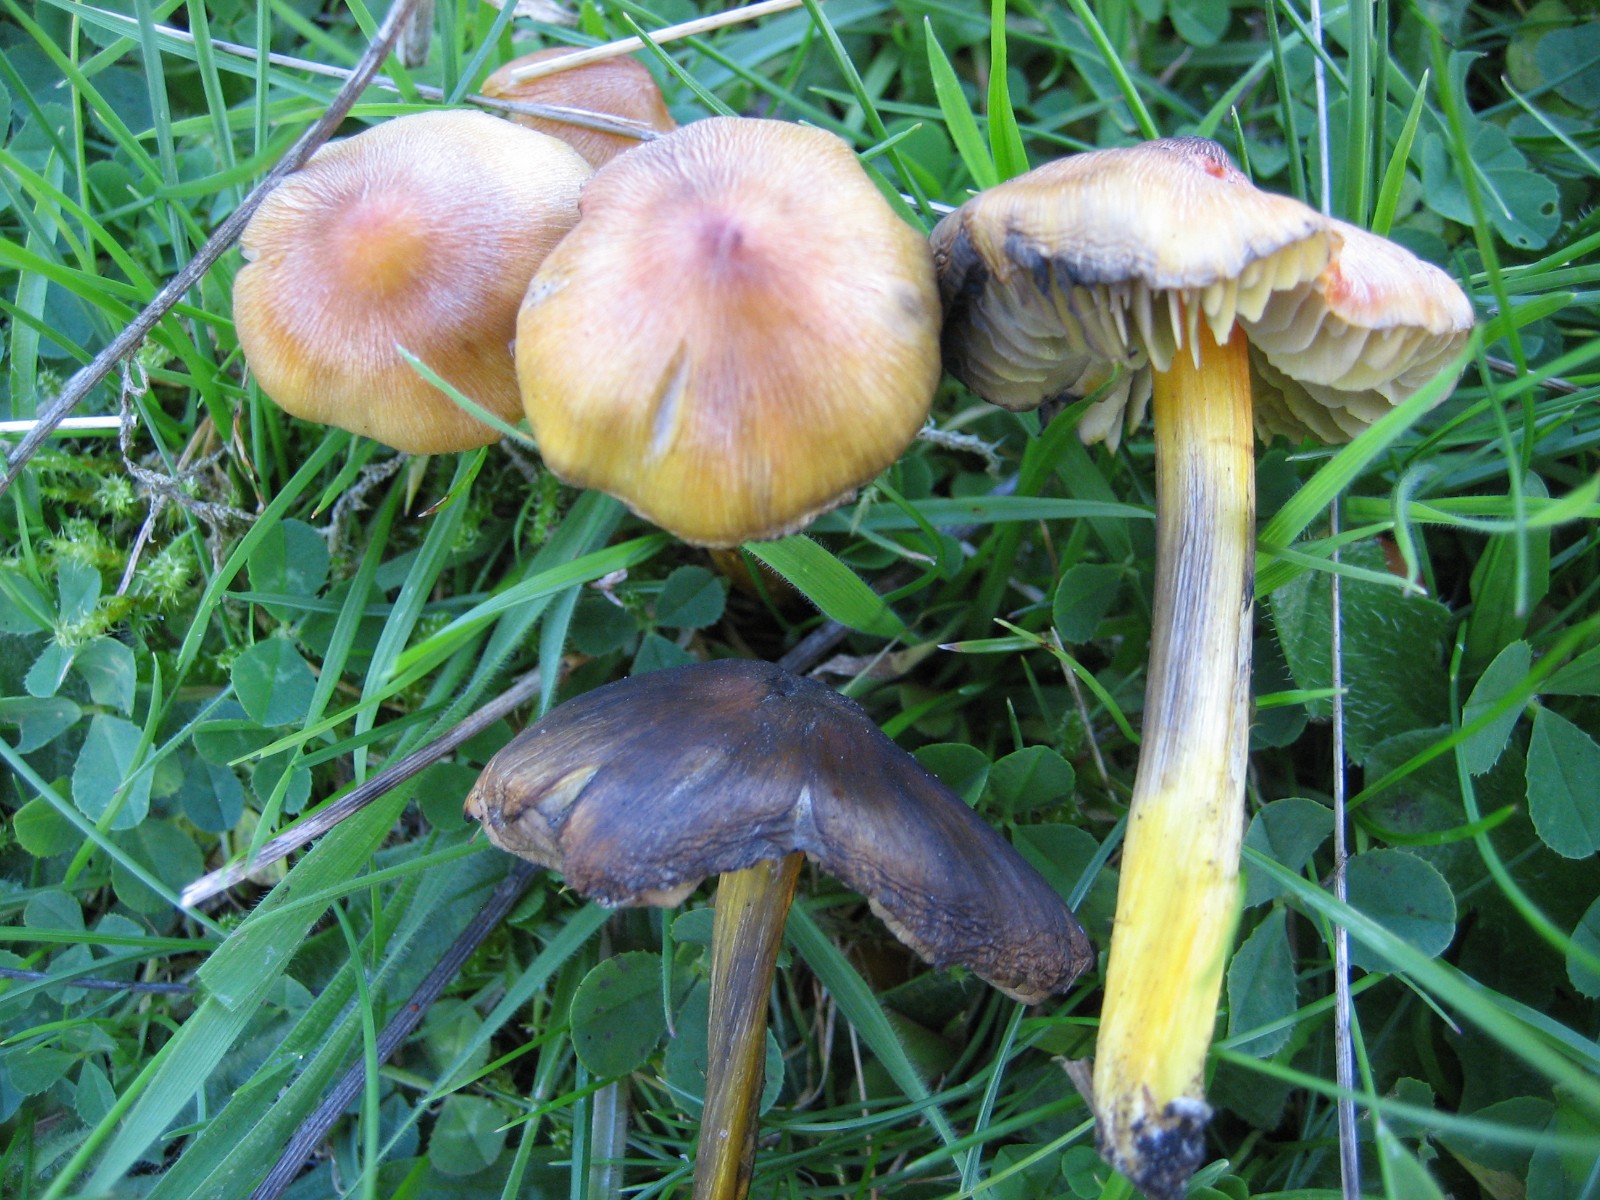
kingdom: Fungi
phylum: Basidiomycota
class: Agaricomycetes
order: Agaricales
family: Hygrophoraceae
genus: Hygrocybe
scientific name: Hygrocybe conica
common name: kegle-vokshat
